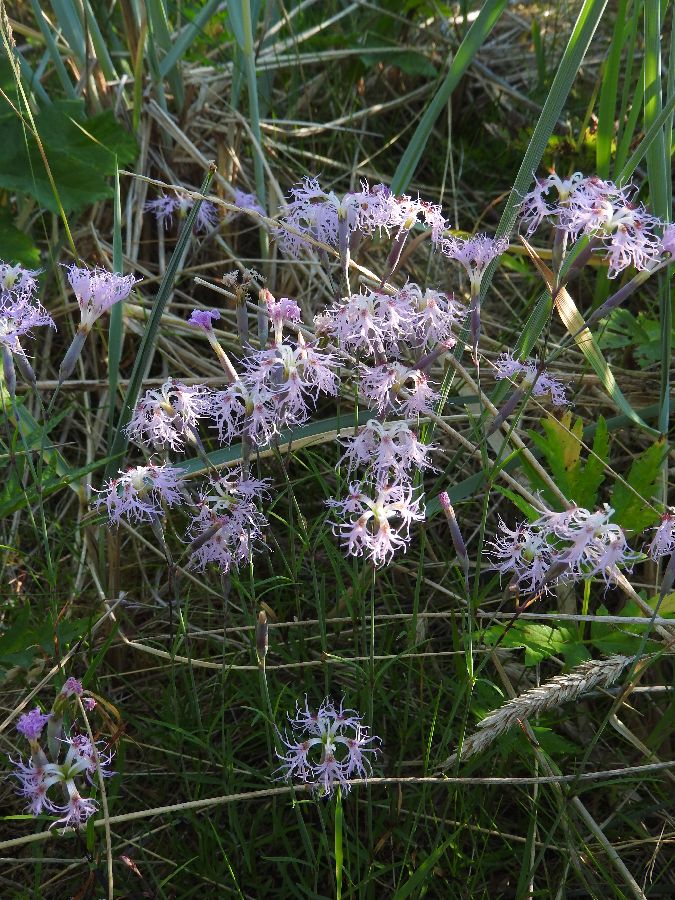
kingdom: Plantae
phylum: Tracheophyta
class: Magnoliopsida
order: Caryophyllales
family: Caryophyllaceae
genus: Dianthus
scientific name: Dianthus superbus
